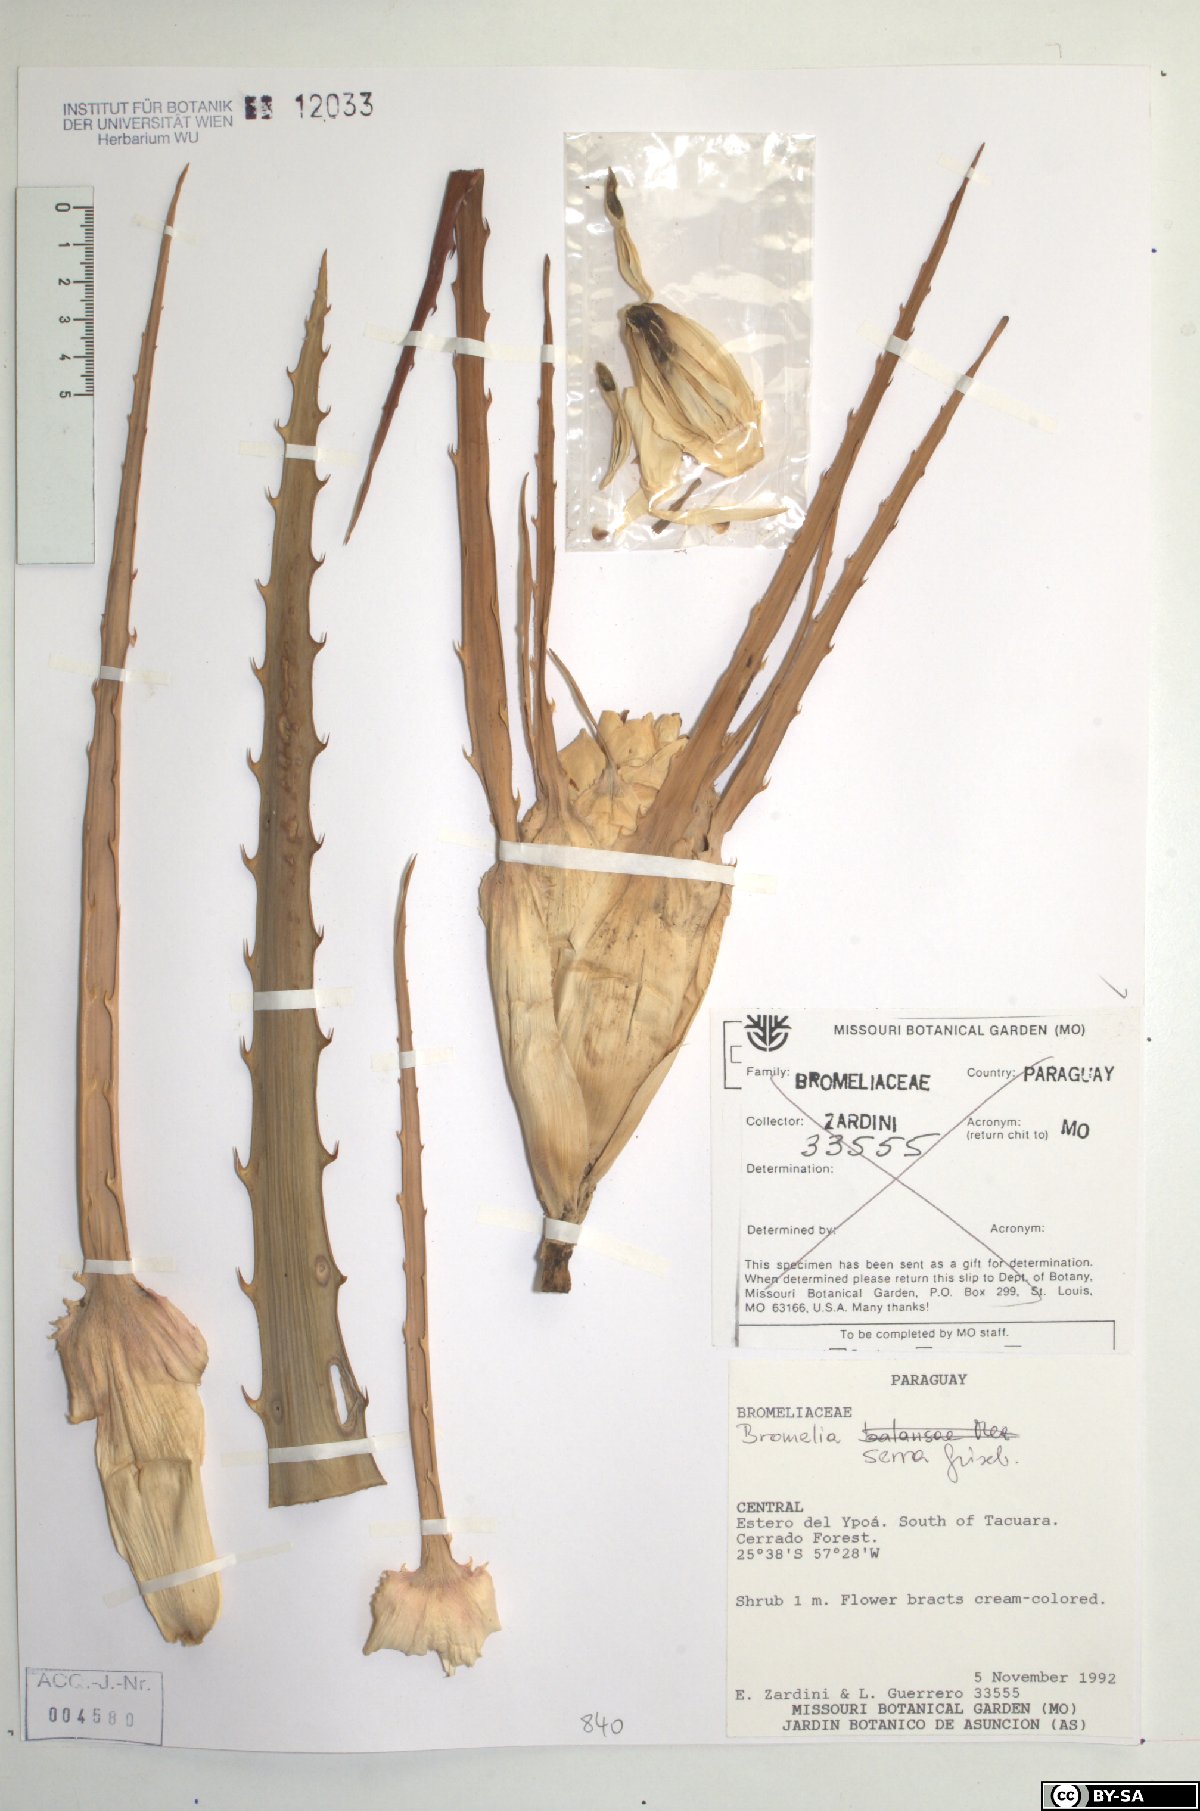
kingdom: Plantae
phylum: Tracheophyta
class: Liliopsida
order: Poales
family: Bromeliaceae
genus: Bromelia
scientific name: Bromelia serra
